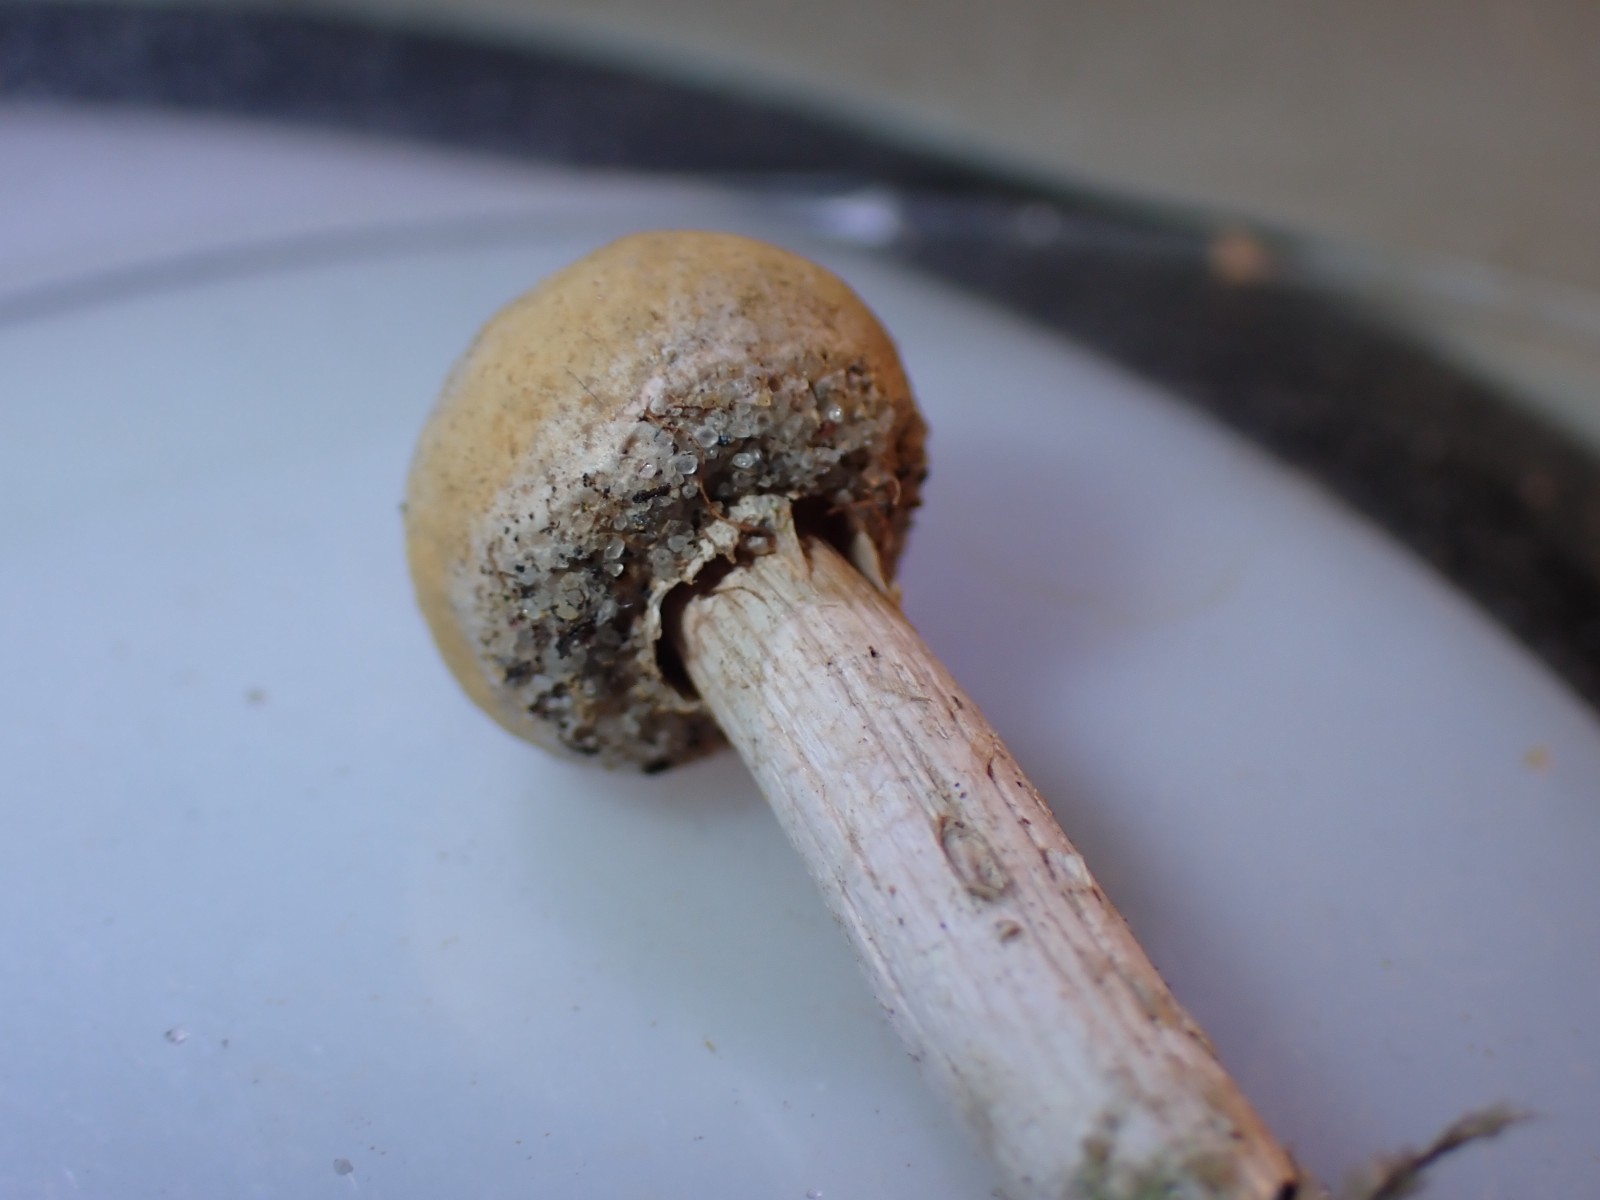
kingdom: Fungi
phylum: Basidiomycota
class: Agaricomycetes
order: Agaricales
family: Agaricaceae
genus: Tulostoma
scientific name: Tulostoma fimbriatum
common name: frynset stilkbovist
